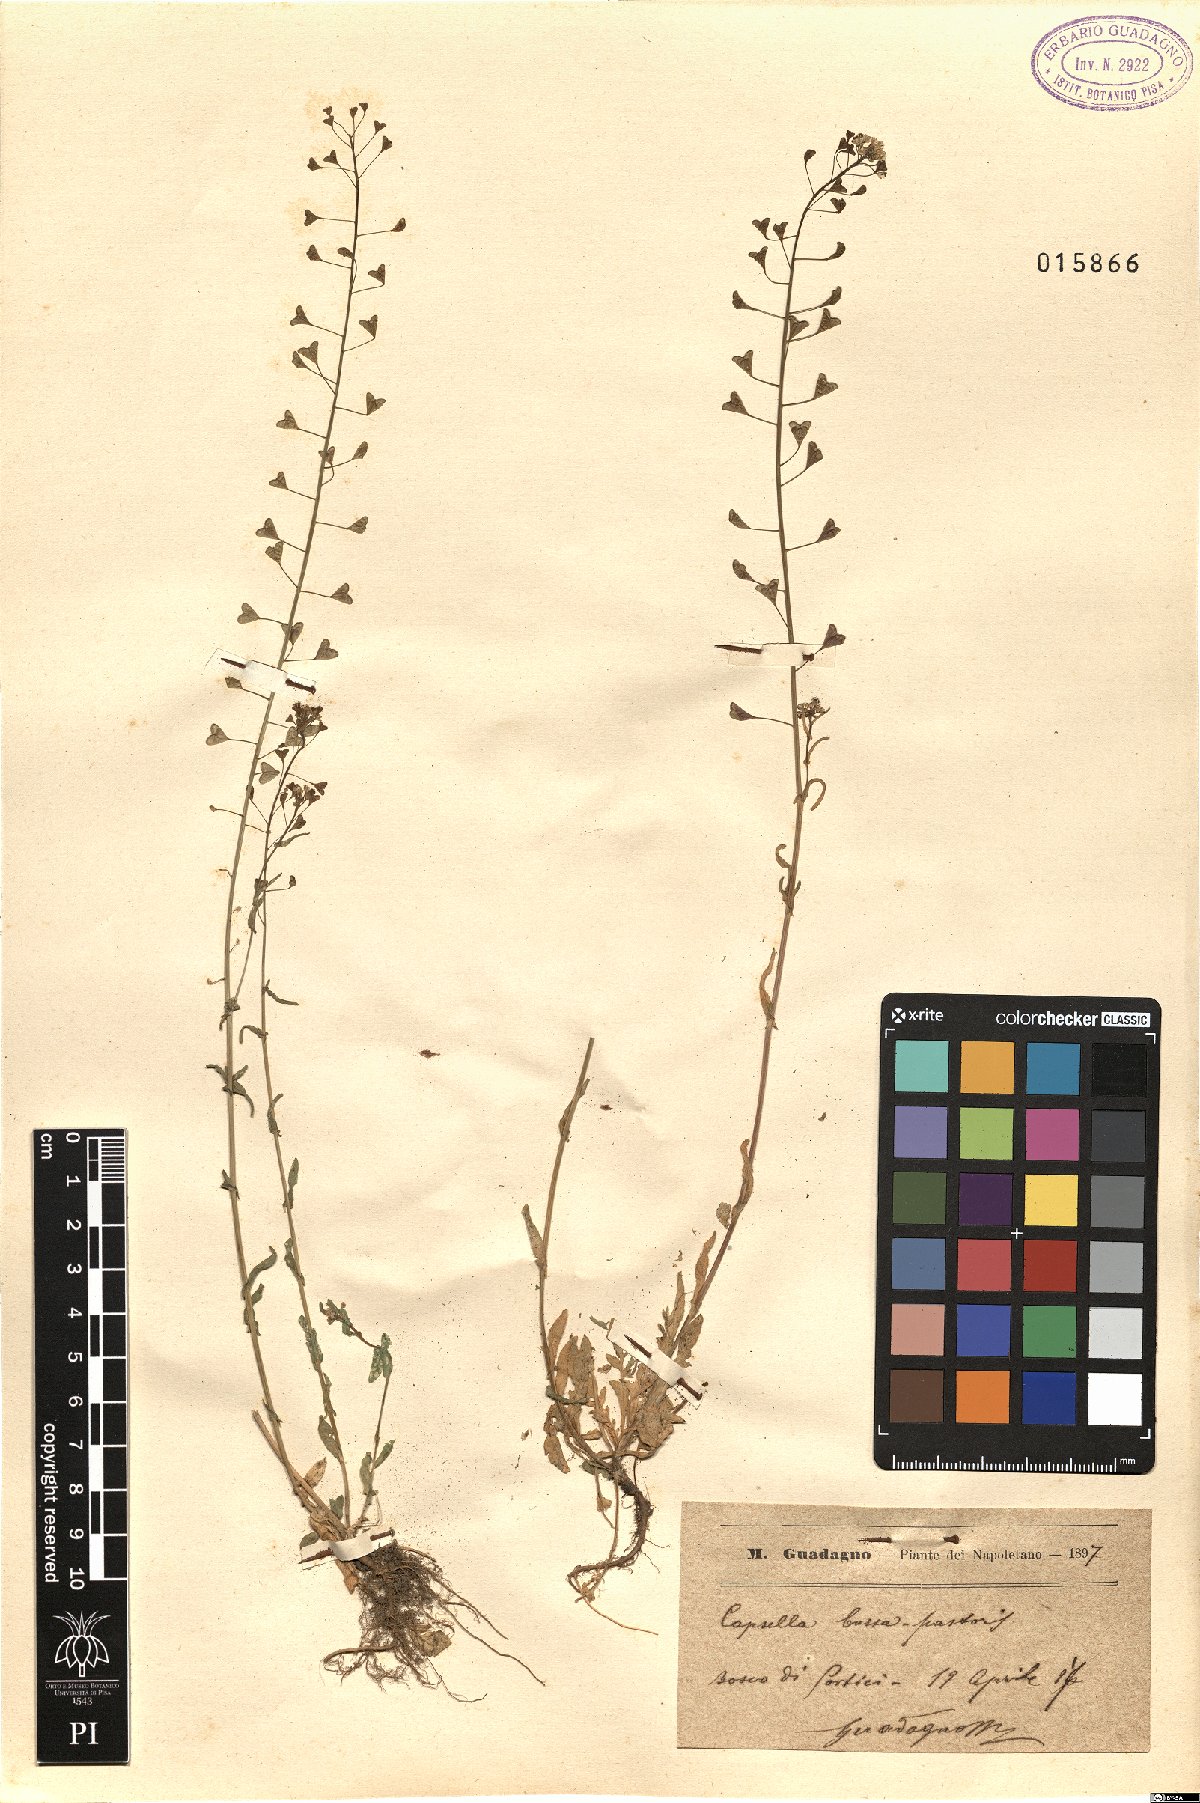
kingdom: Plantae
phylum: Tracheophyta
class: Magnoliopsida
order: Brassicales
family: Brassicaceae
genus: Capsella
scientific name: Capsella bursa-pastoris
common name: Shepherd's purse
